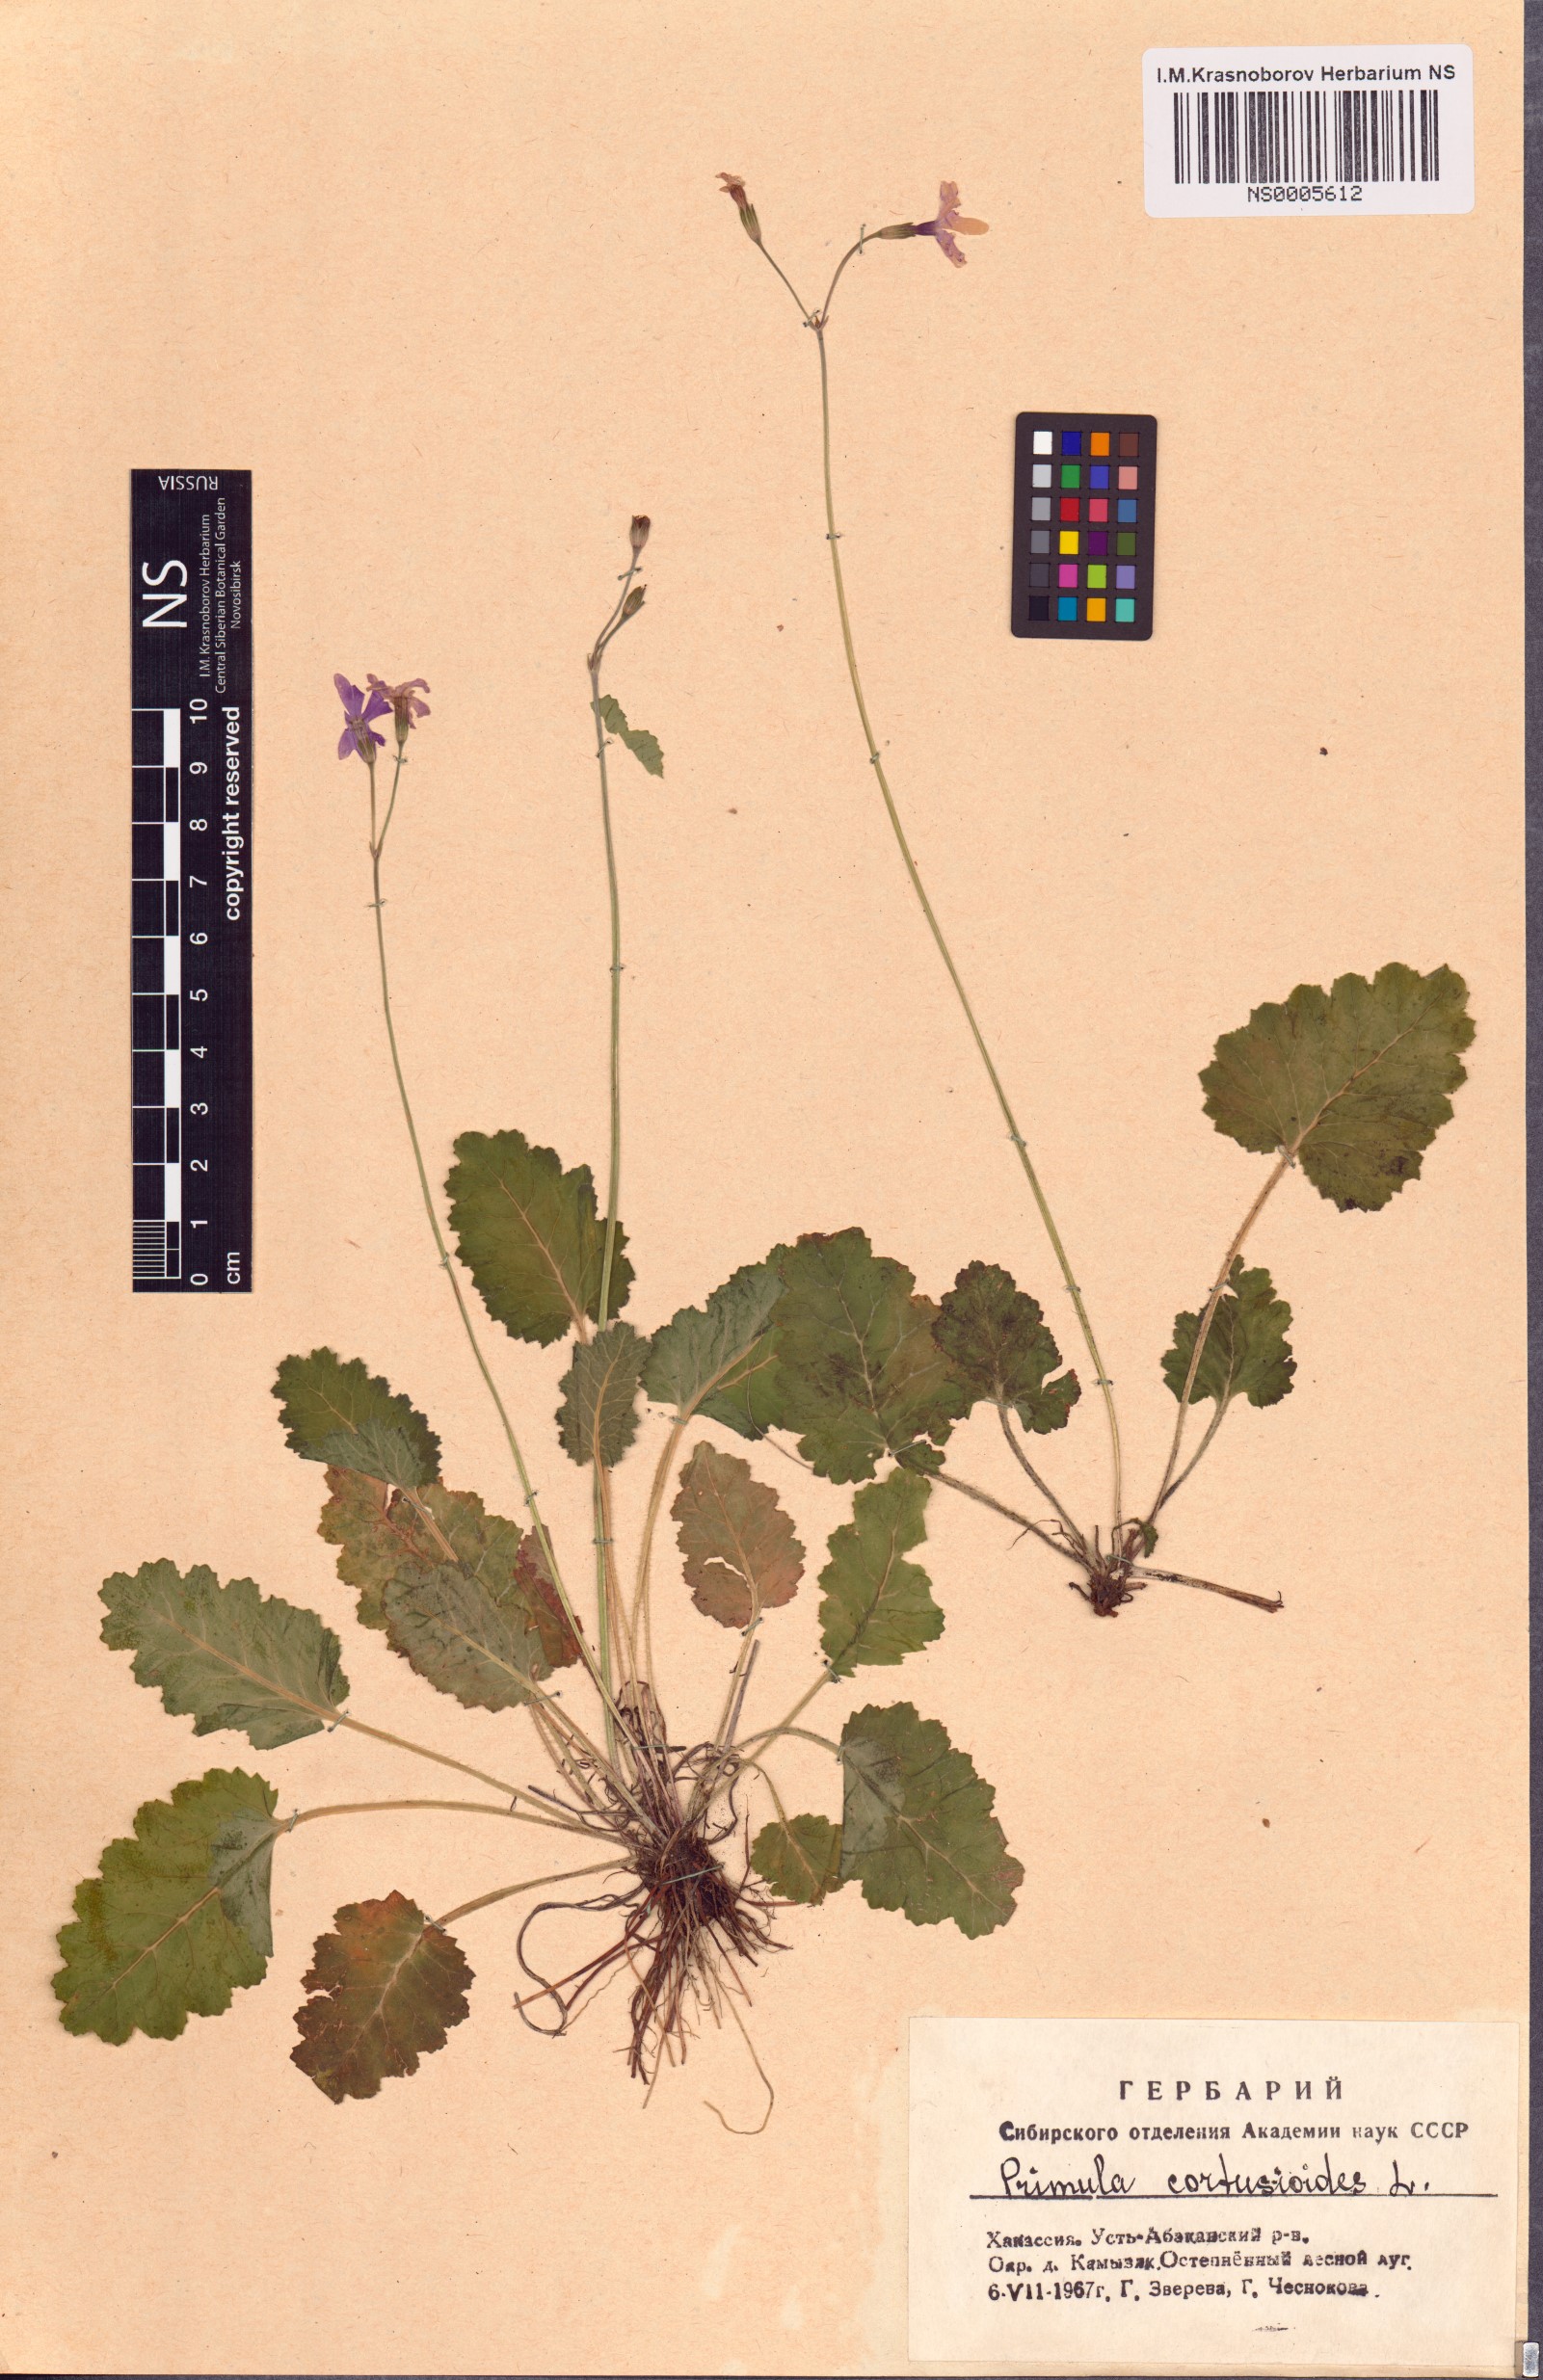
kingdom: Plantae
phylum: Tracheophyta
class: Magnoliopsida
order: Ericales
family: Primulaceae
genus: Primula
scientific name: Primula cortusoides
